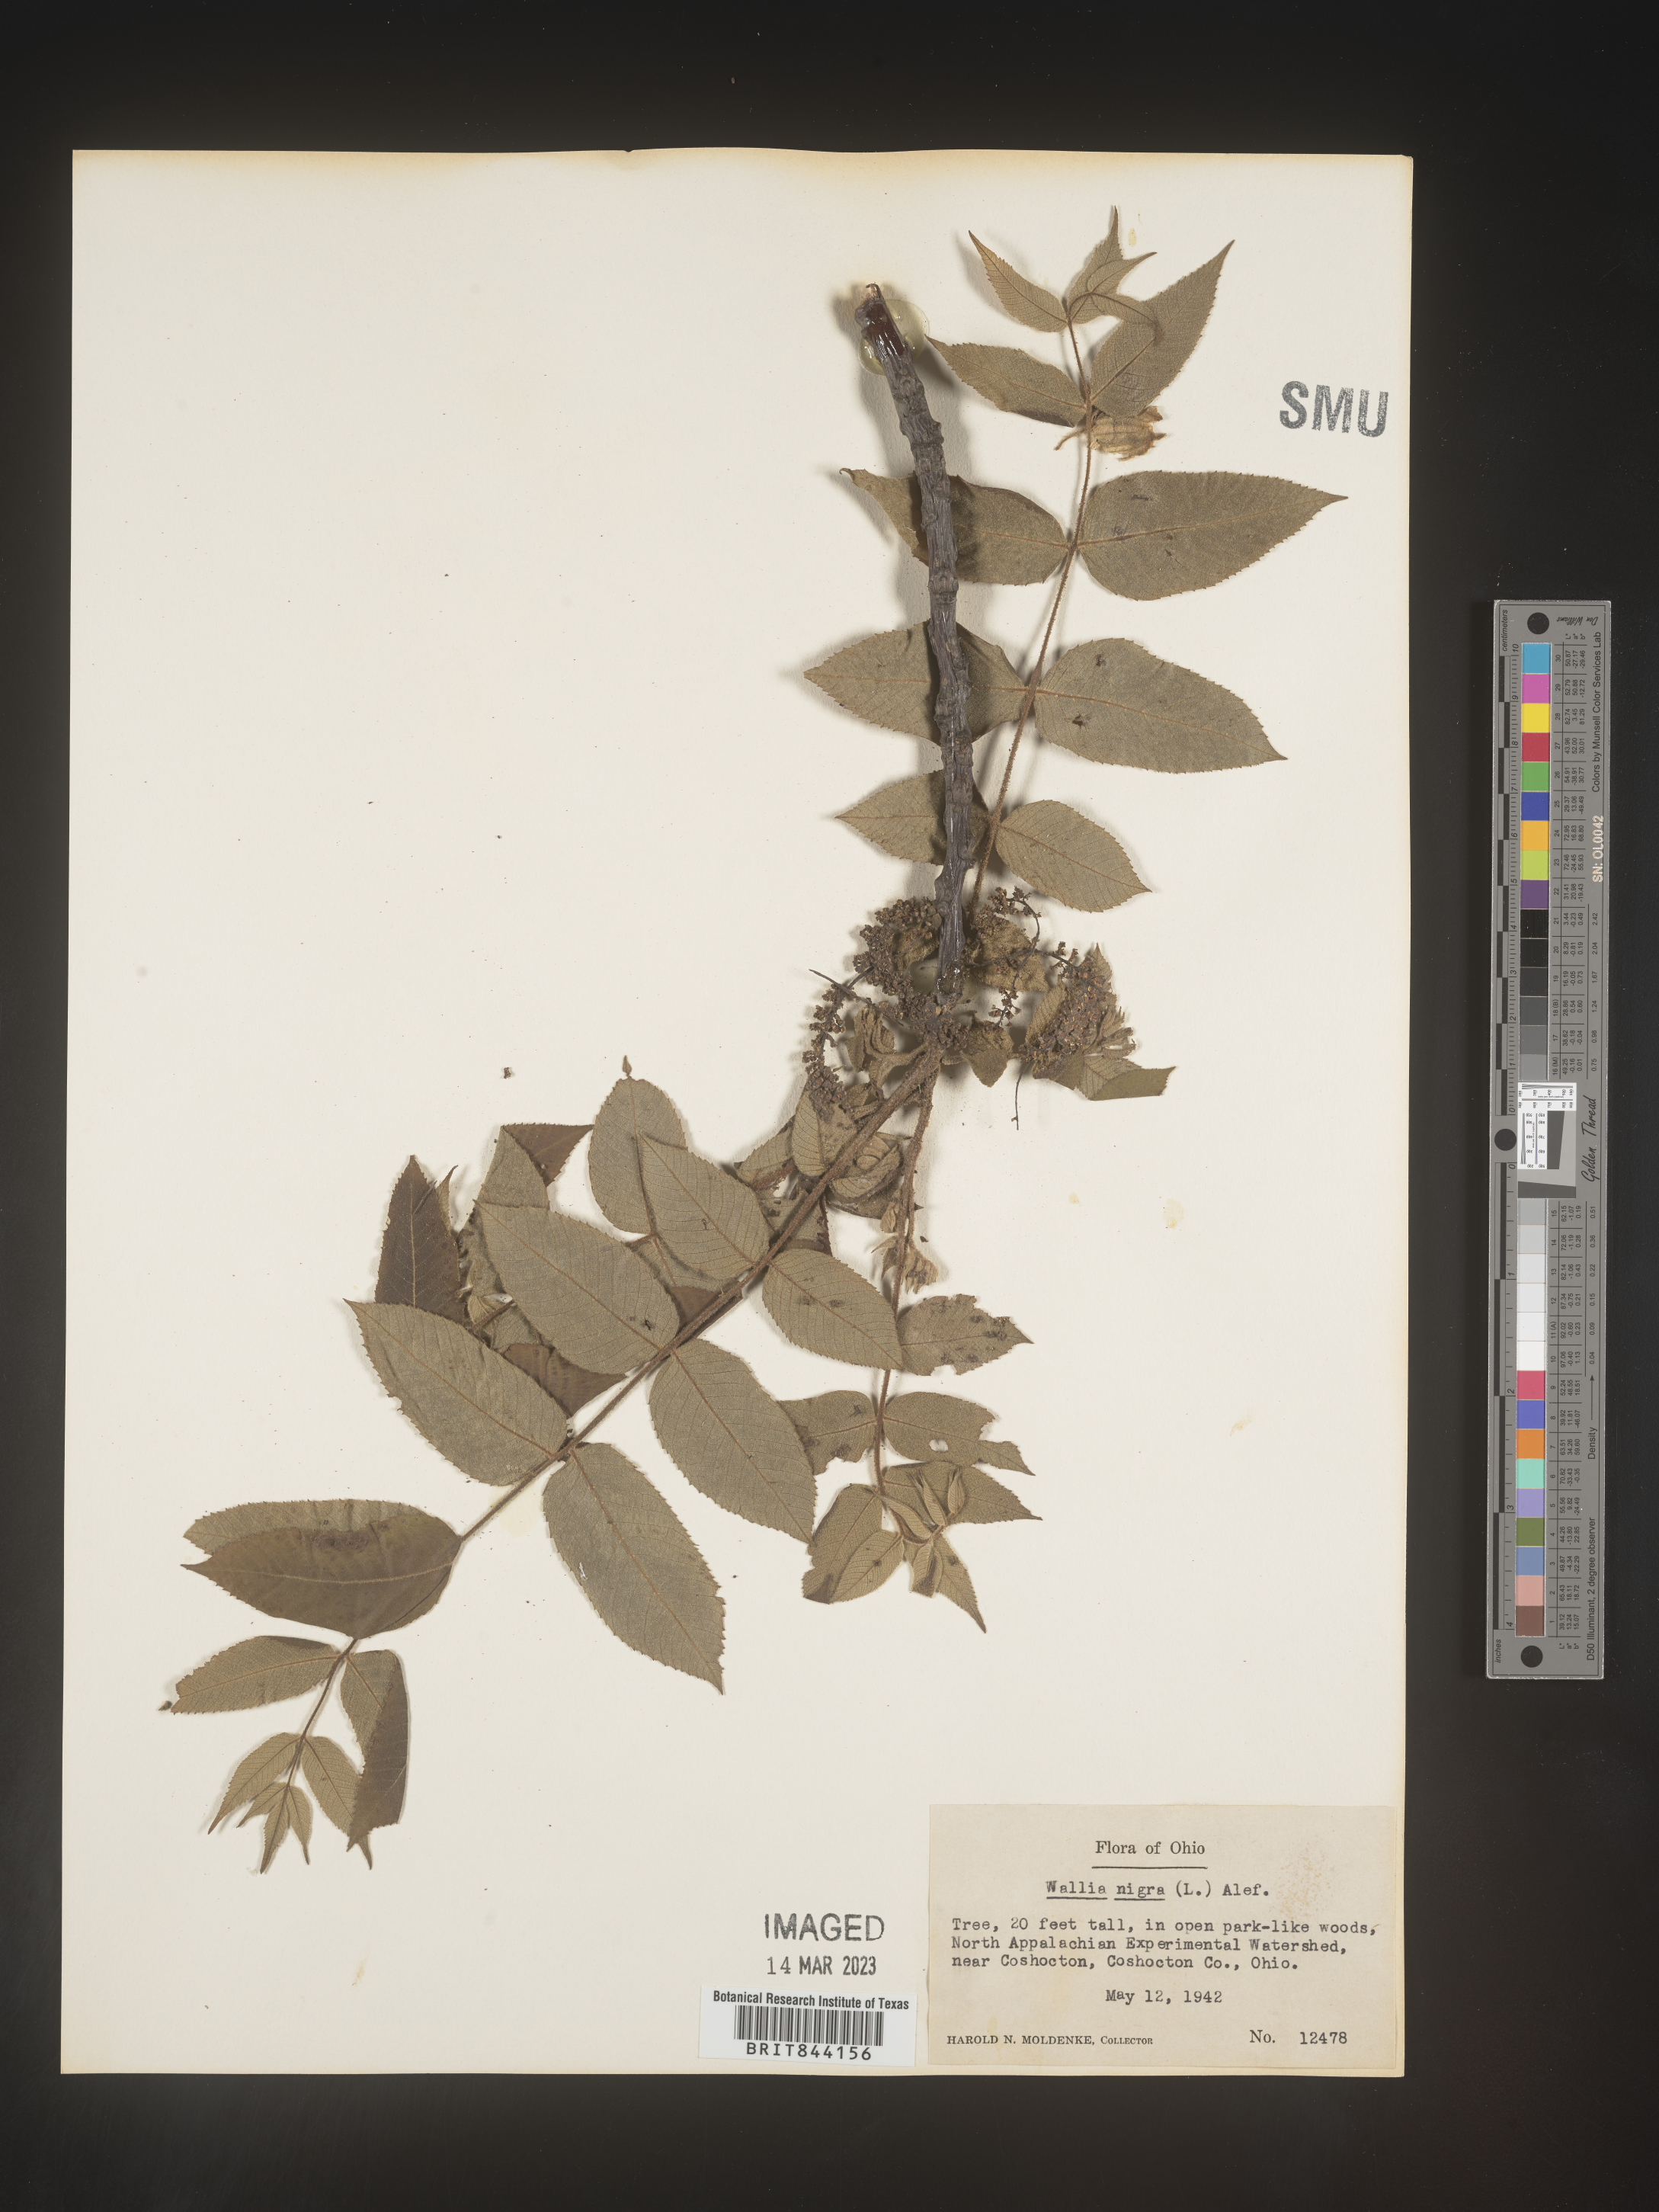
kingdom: Plantae
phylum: Tracheophyta
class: Magnoliopsida
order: Fagales
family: Juglandaceae
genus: Juglans
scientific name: Juglans nigra
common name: Black walnut
